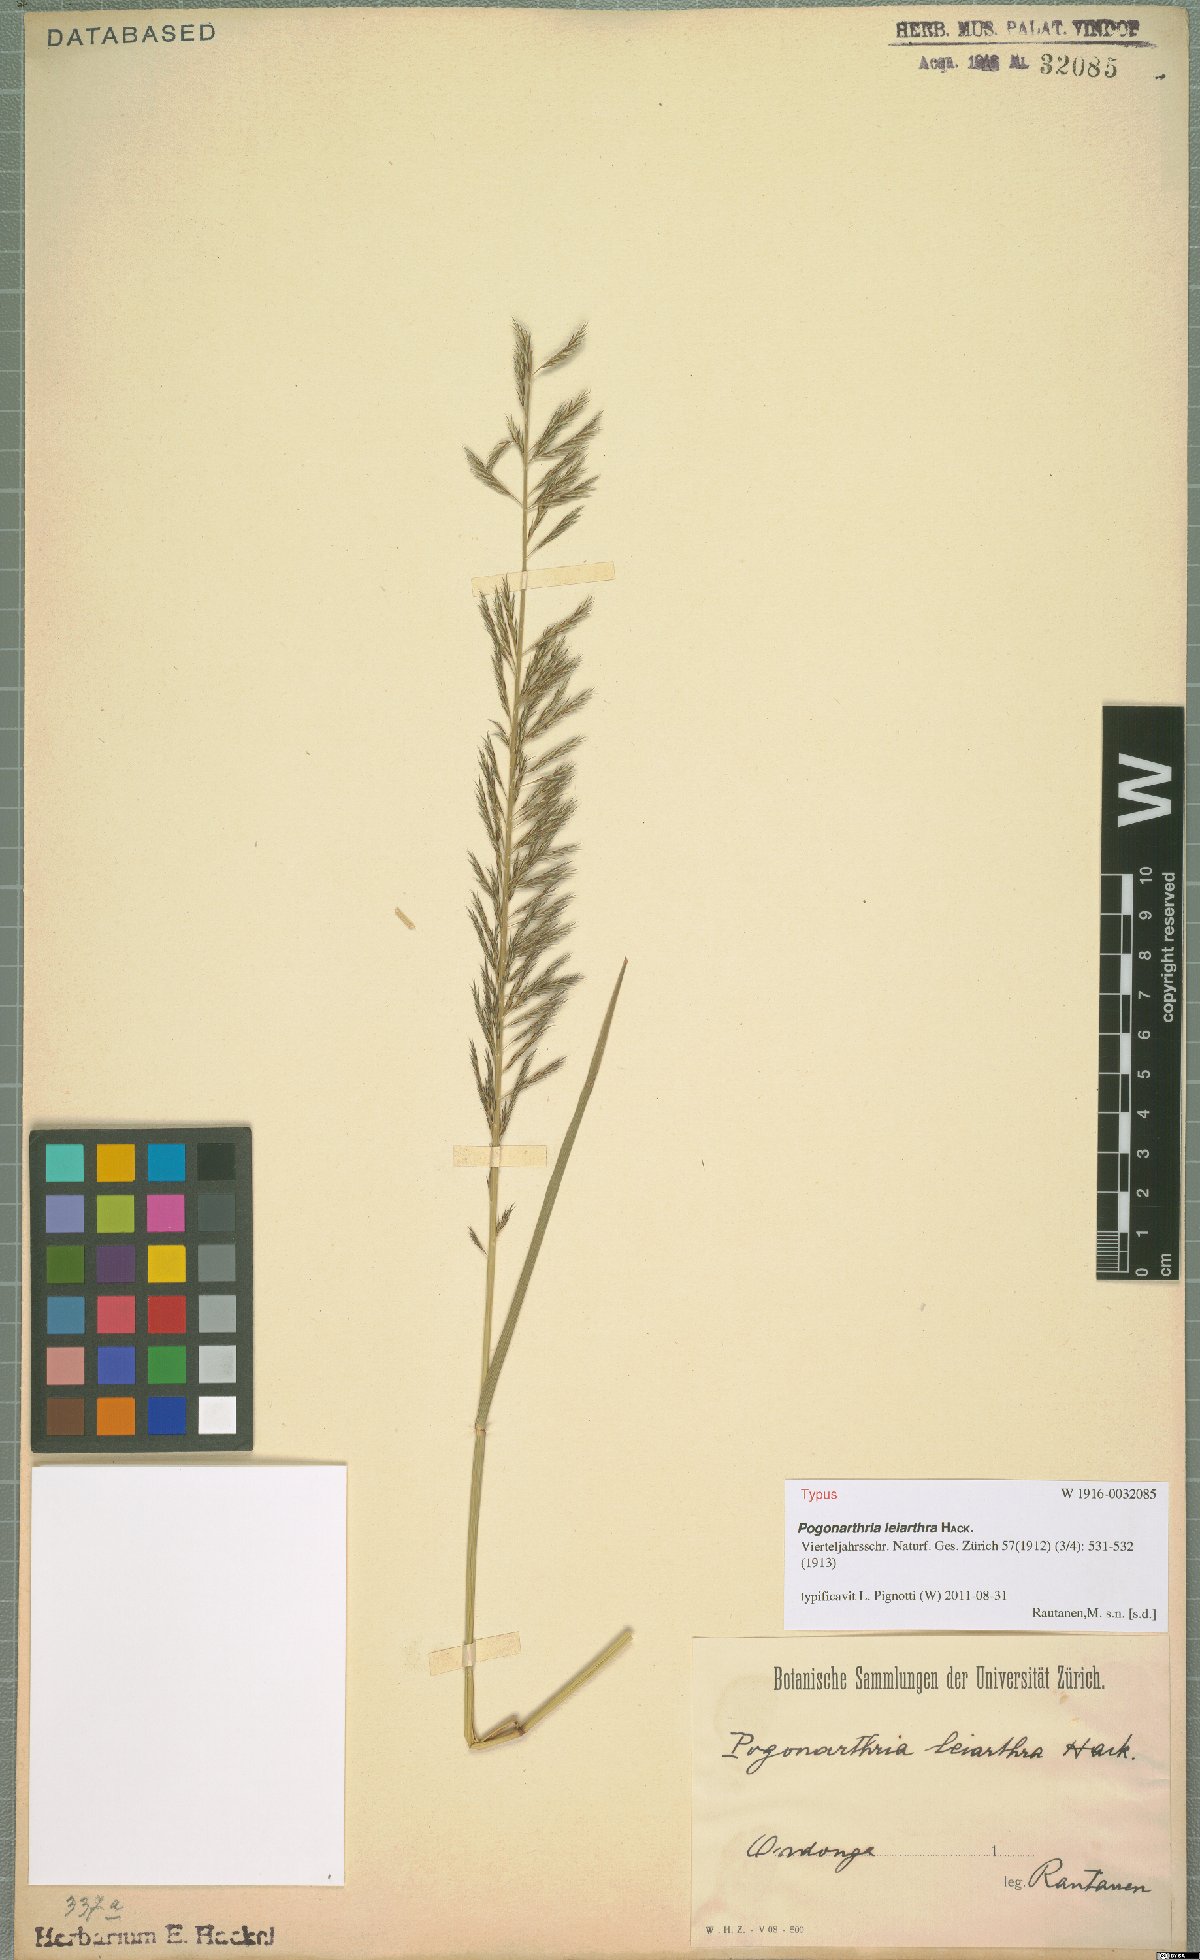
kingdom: Plantae
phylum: Tracheophyta
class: Liliopsida
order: Poales
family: Poaceae
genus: Pogonarthria
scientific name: Pogonarthria leiarthra
